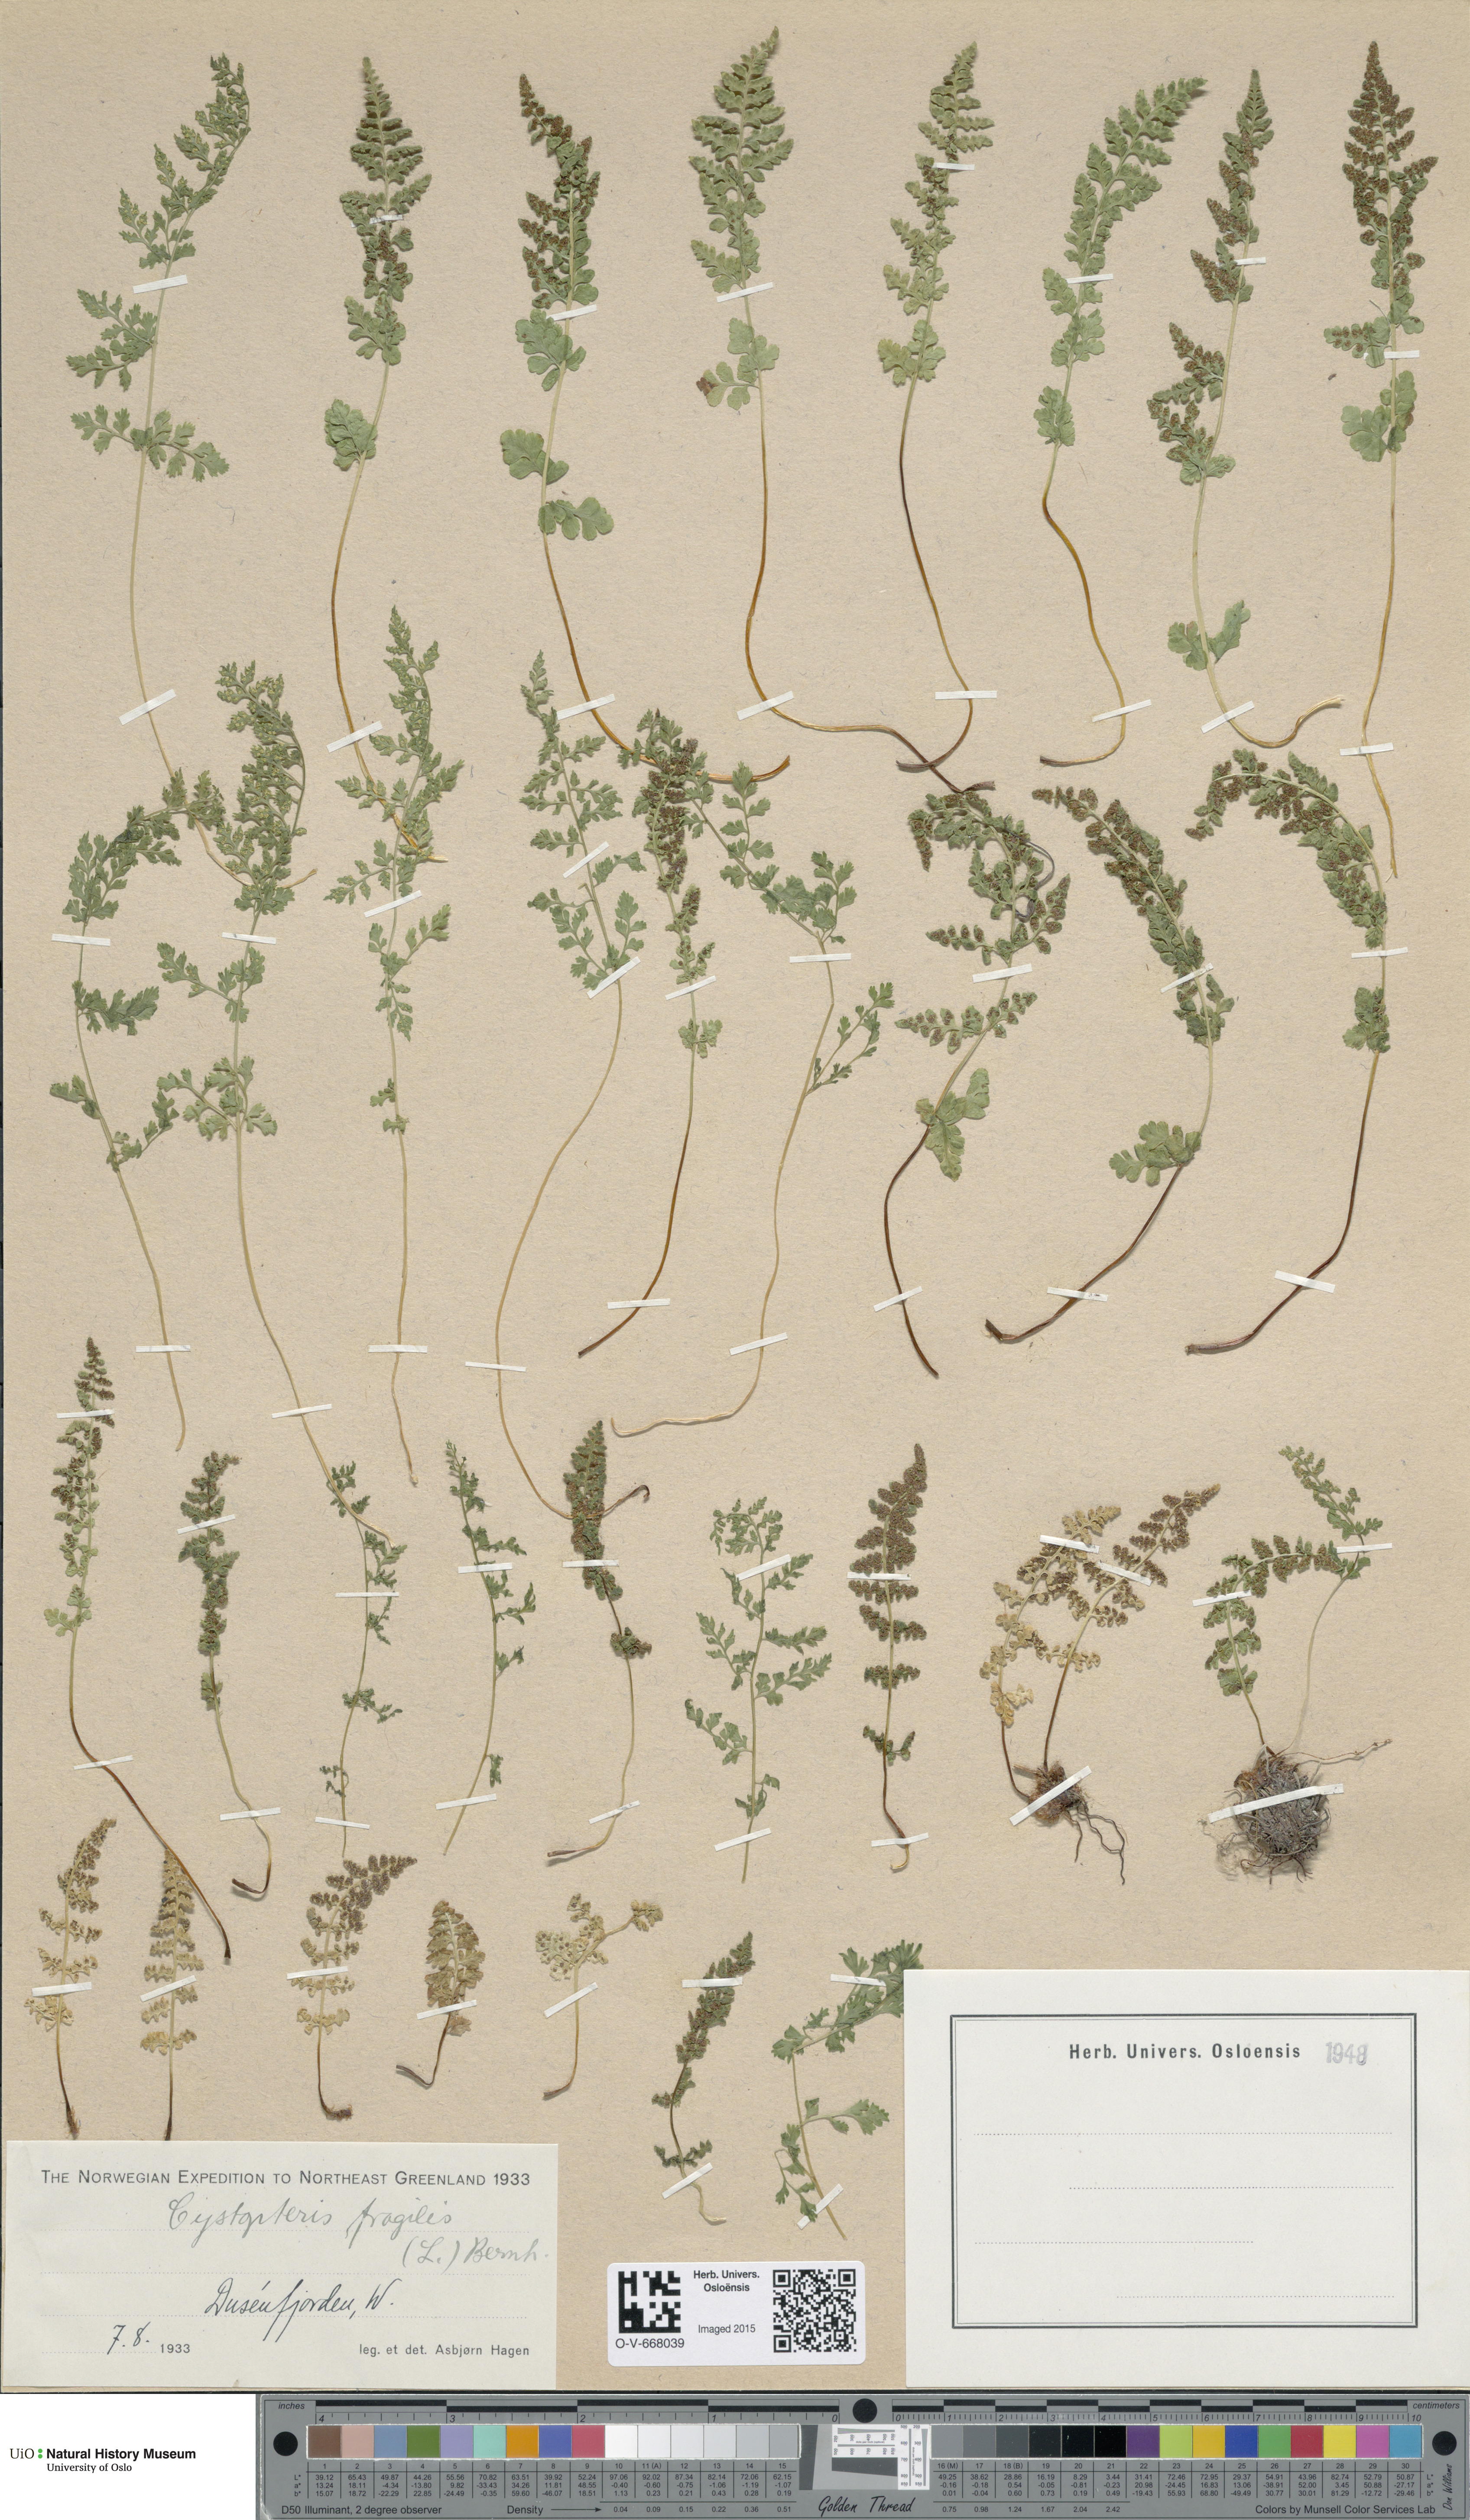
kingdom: Plantae
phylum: Tracheophyta
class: Polypodiopsida
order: Polypodiales
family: Cystopteridaceae
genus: Cystopteris
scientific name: Cystopteris fragilis
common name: Brittle bladder fern
